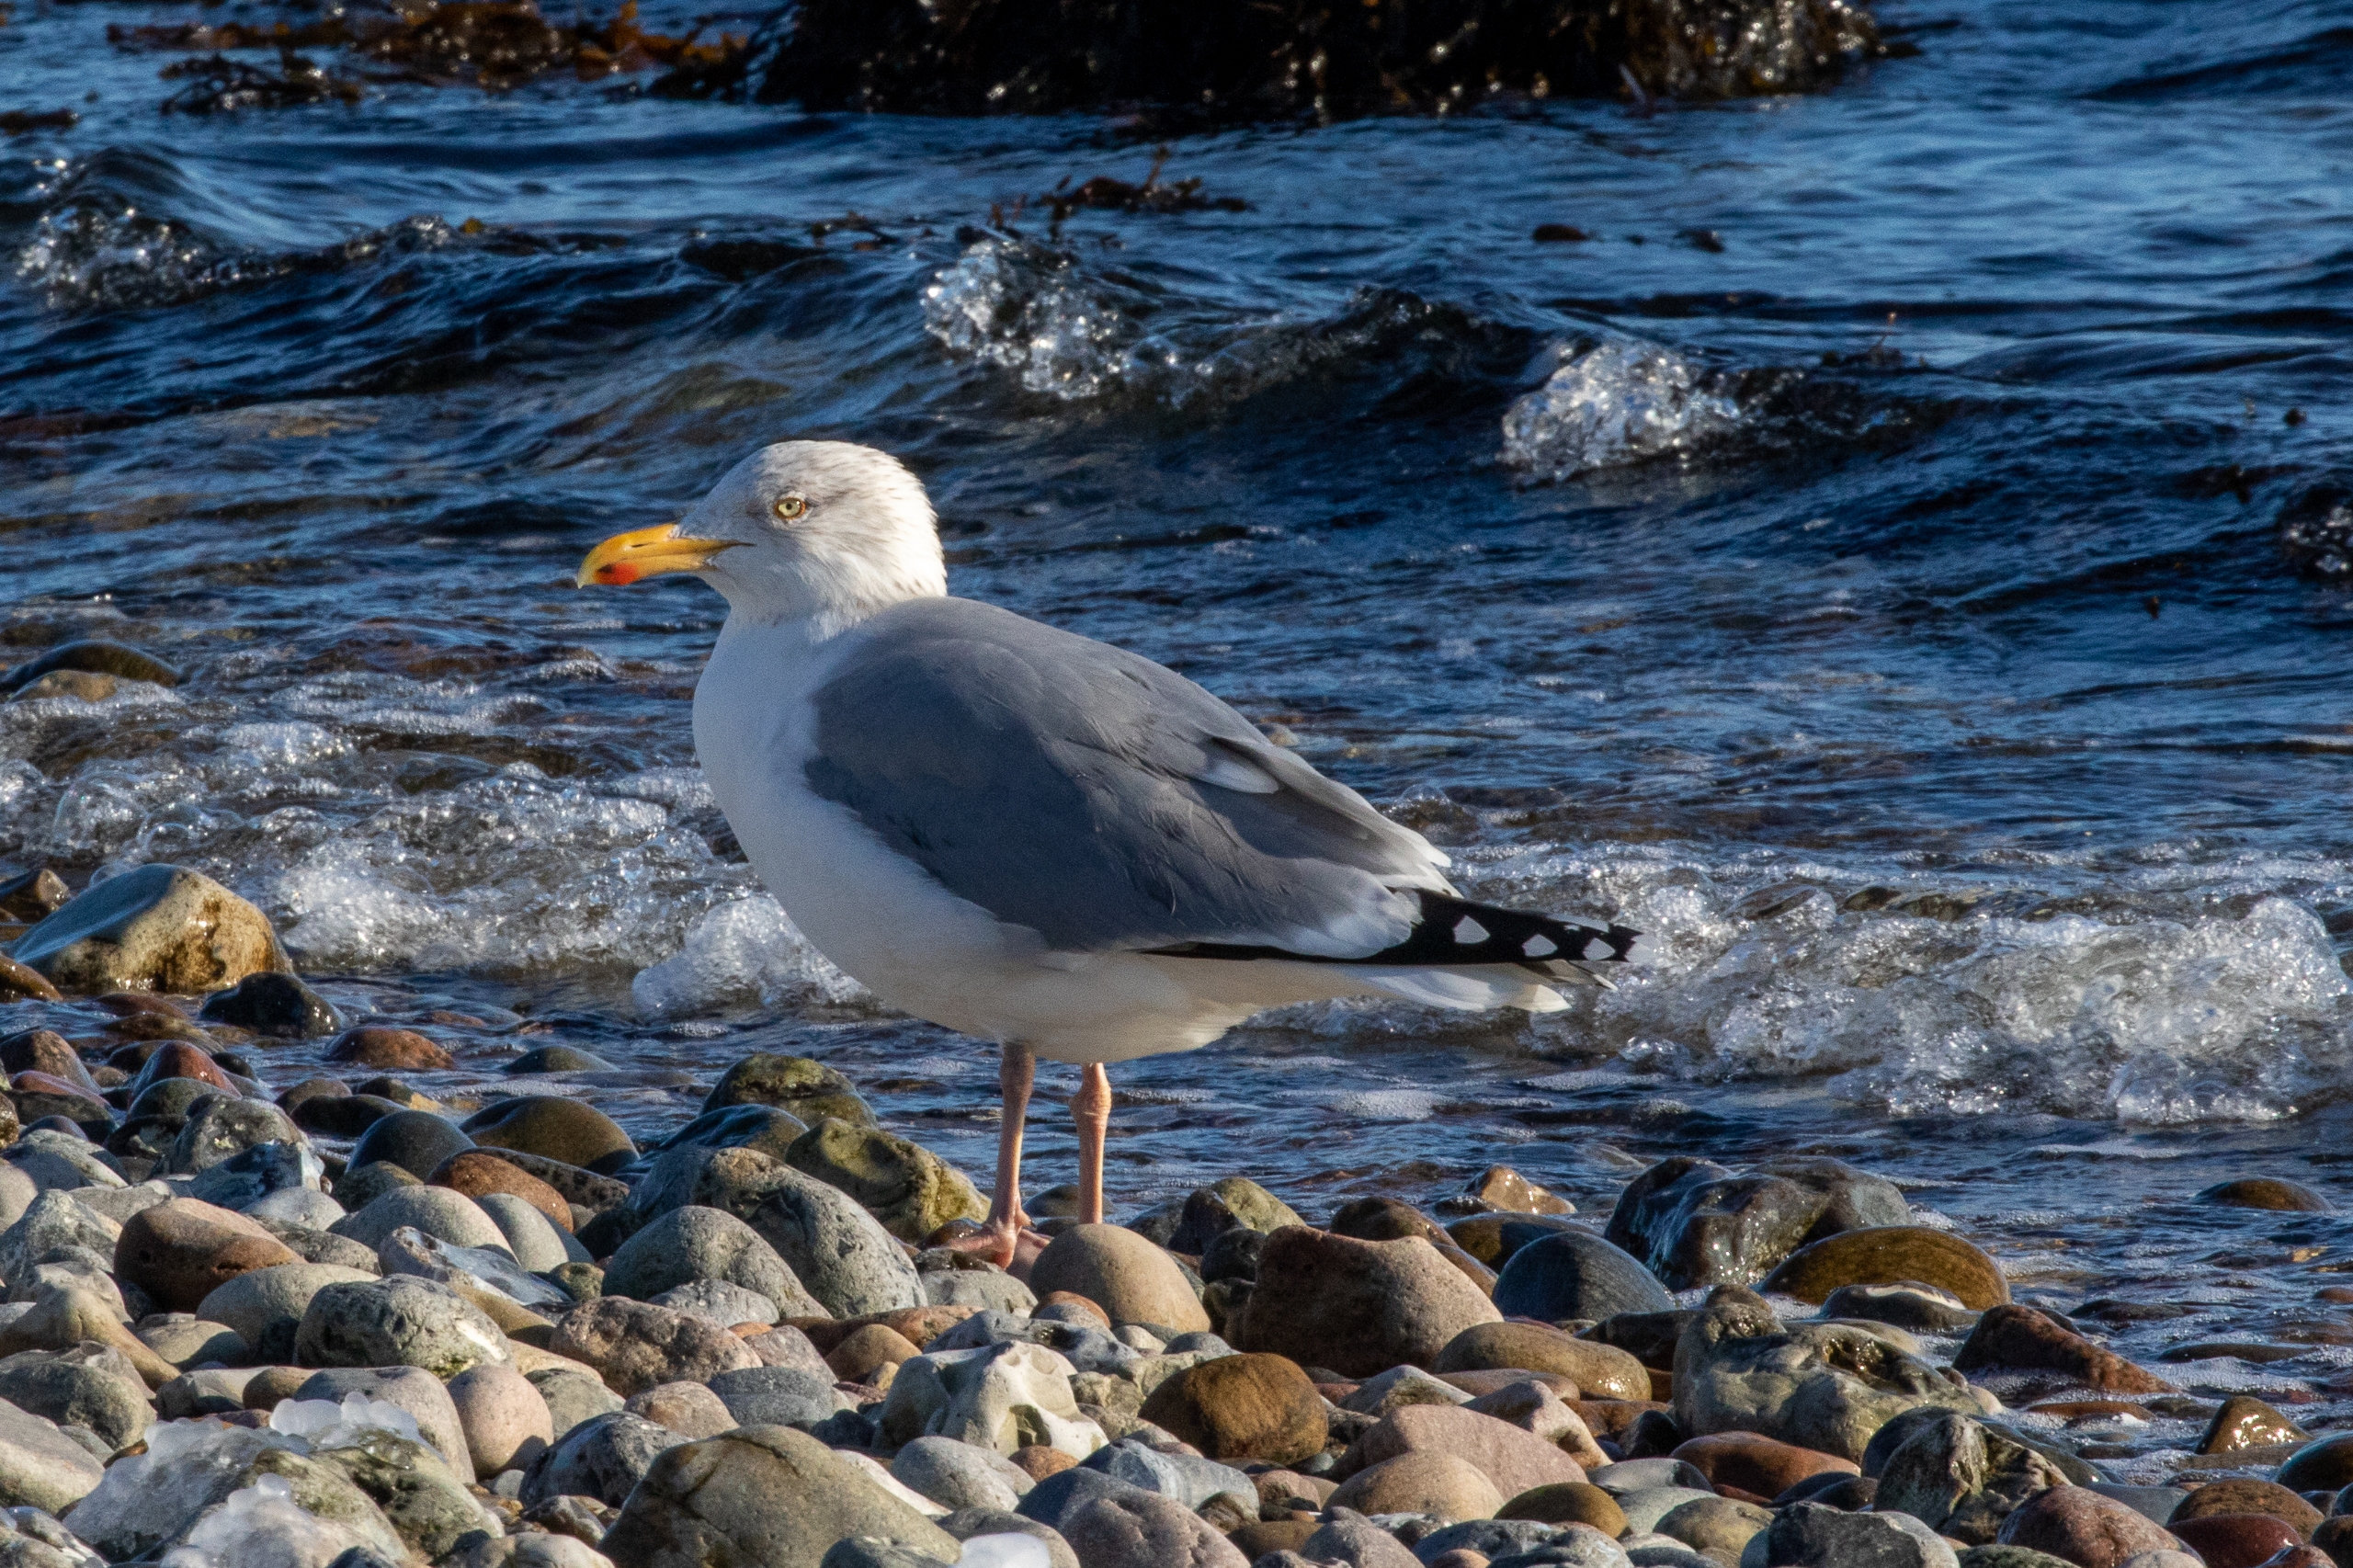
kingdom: Animalia
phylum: Chordata
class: Aves
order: Charadriiformes
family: Laridae
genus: Larus
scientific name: Larus argentatus
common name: Sølvmåge
